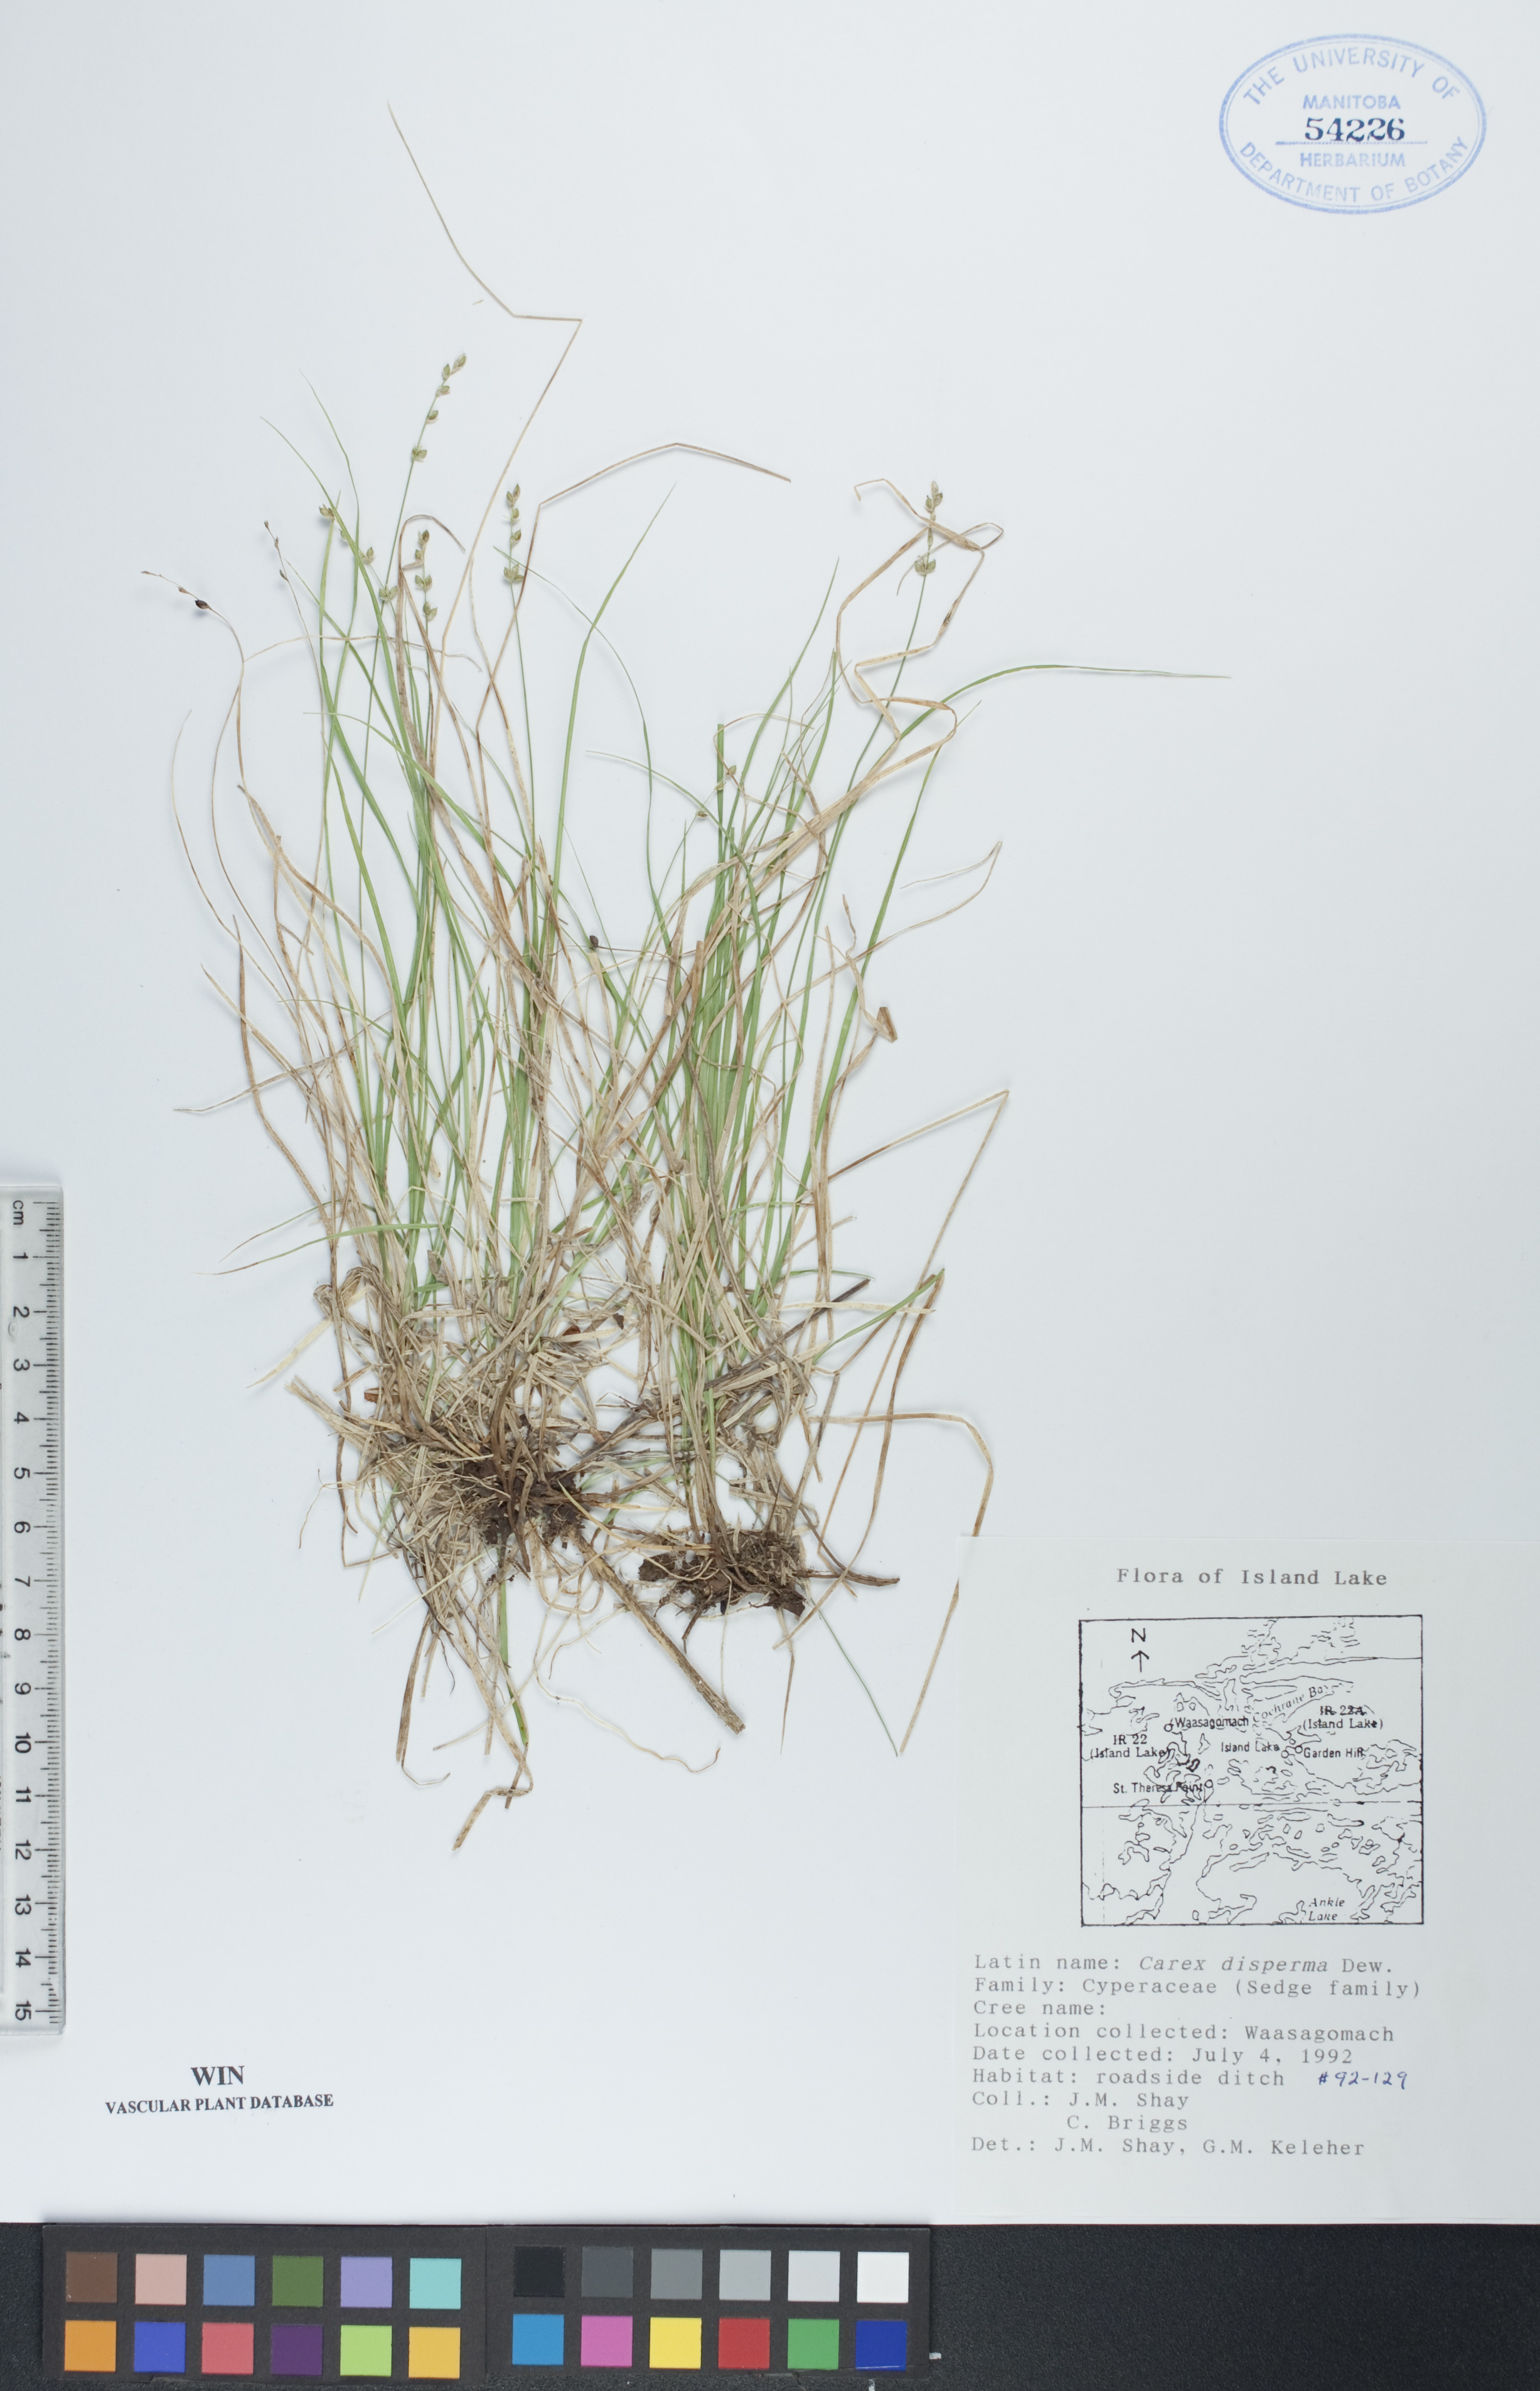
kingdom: Plantae
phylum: Tracheophyta
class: Liliopsida
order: Poales
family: Cyperaceae
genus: Carex
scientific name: Carex disperma
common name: Short-leaved sedge
